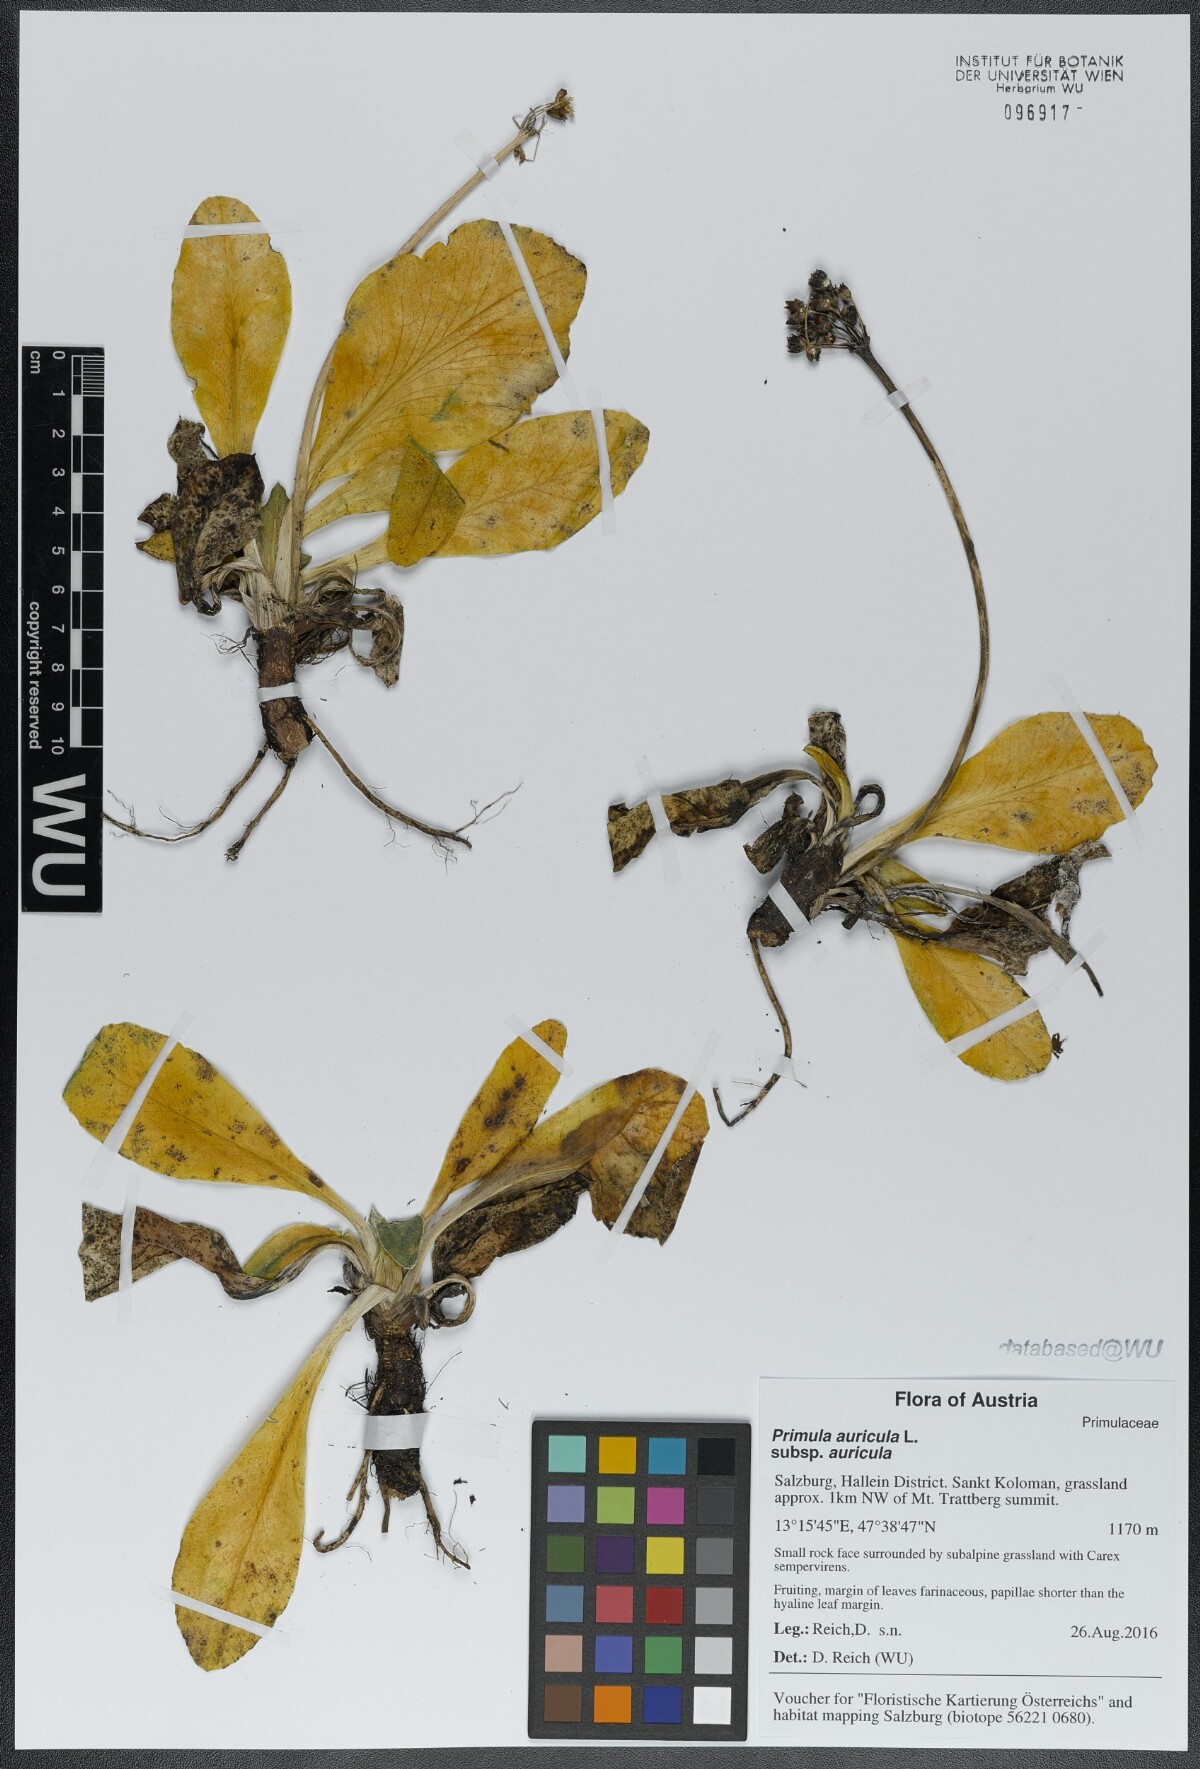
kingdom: Plantae
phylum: Tracheophyta
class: Magnoliopsida
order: Ericales
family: Primulaceae
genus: Primula
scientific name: Primula auricula
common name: Auricula
